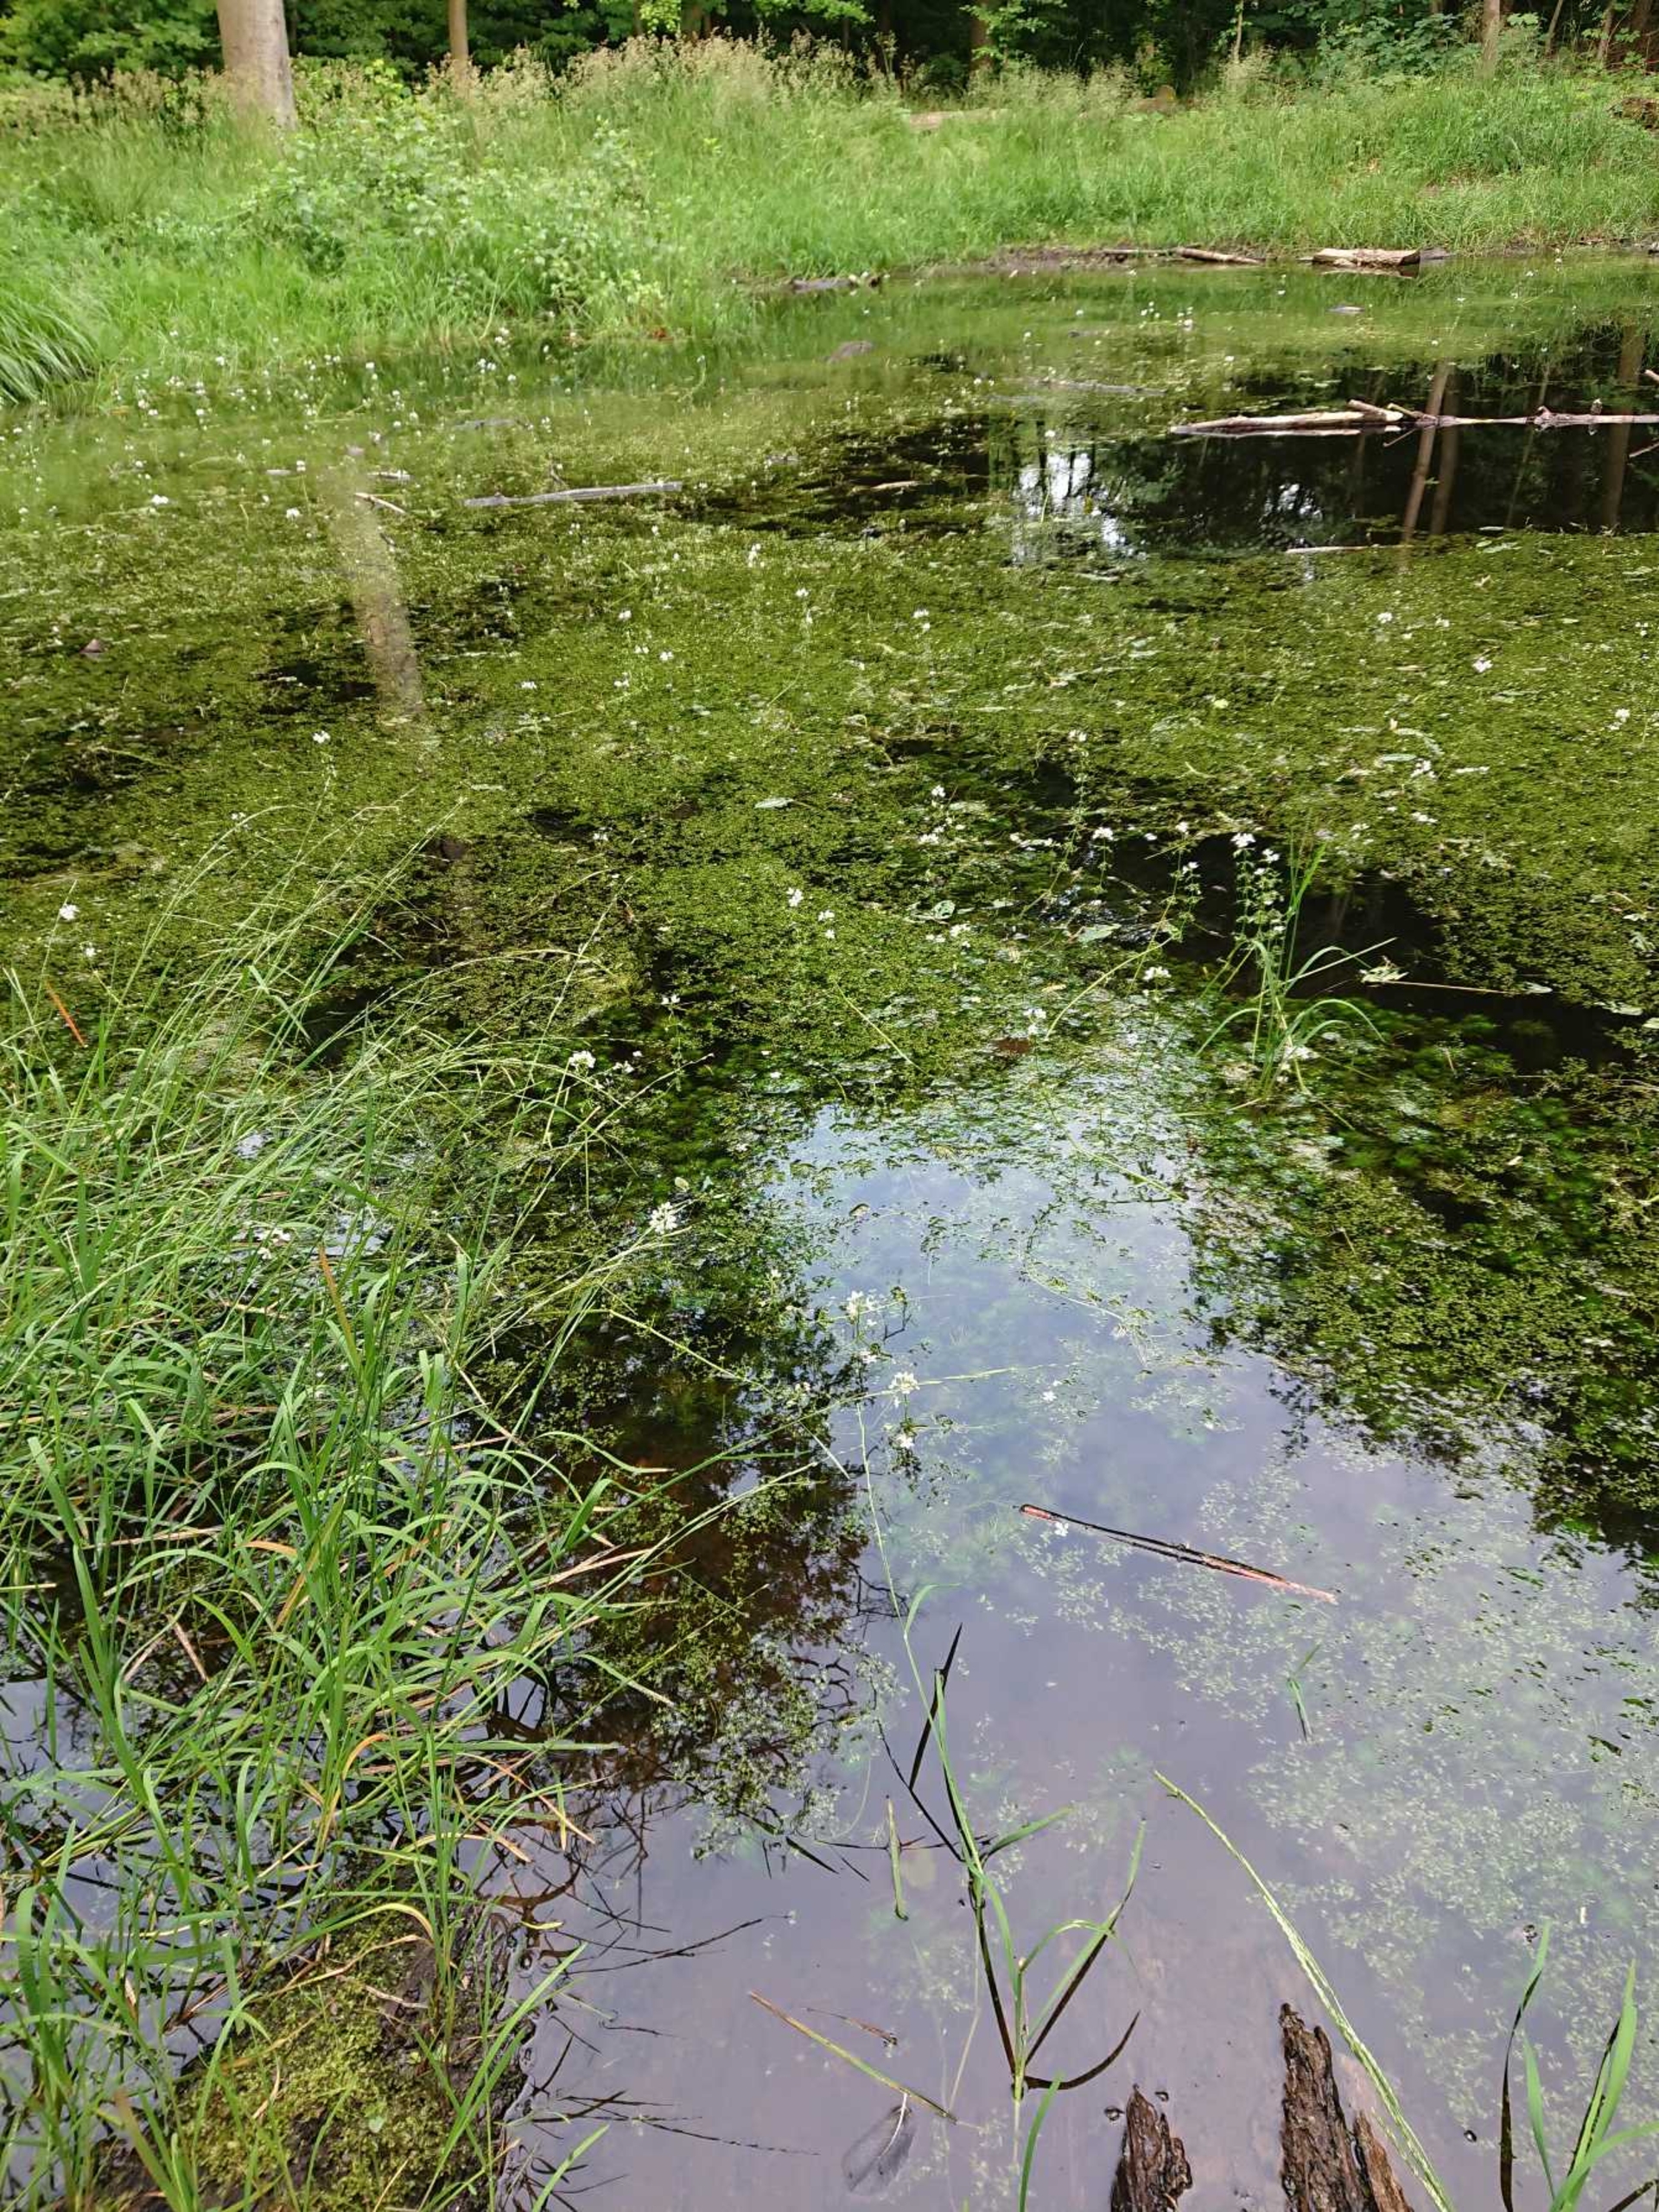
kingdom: Plantae
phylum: Tracheophyta
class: Magnoliopsida
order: Ericales
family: Primulaceae
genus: Hottonia
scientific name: Hottonia palustris
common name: Vandrøllike
